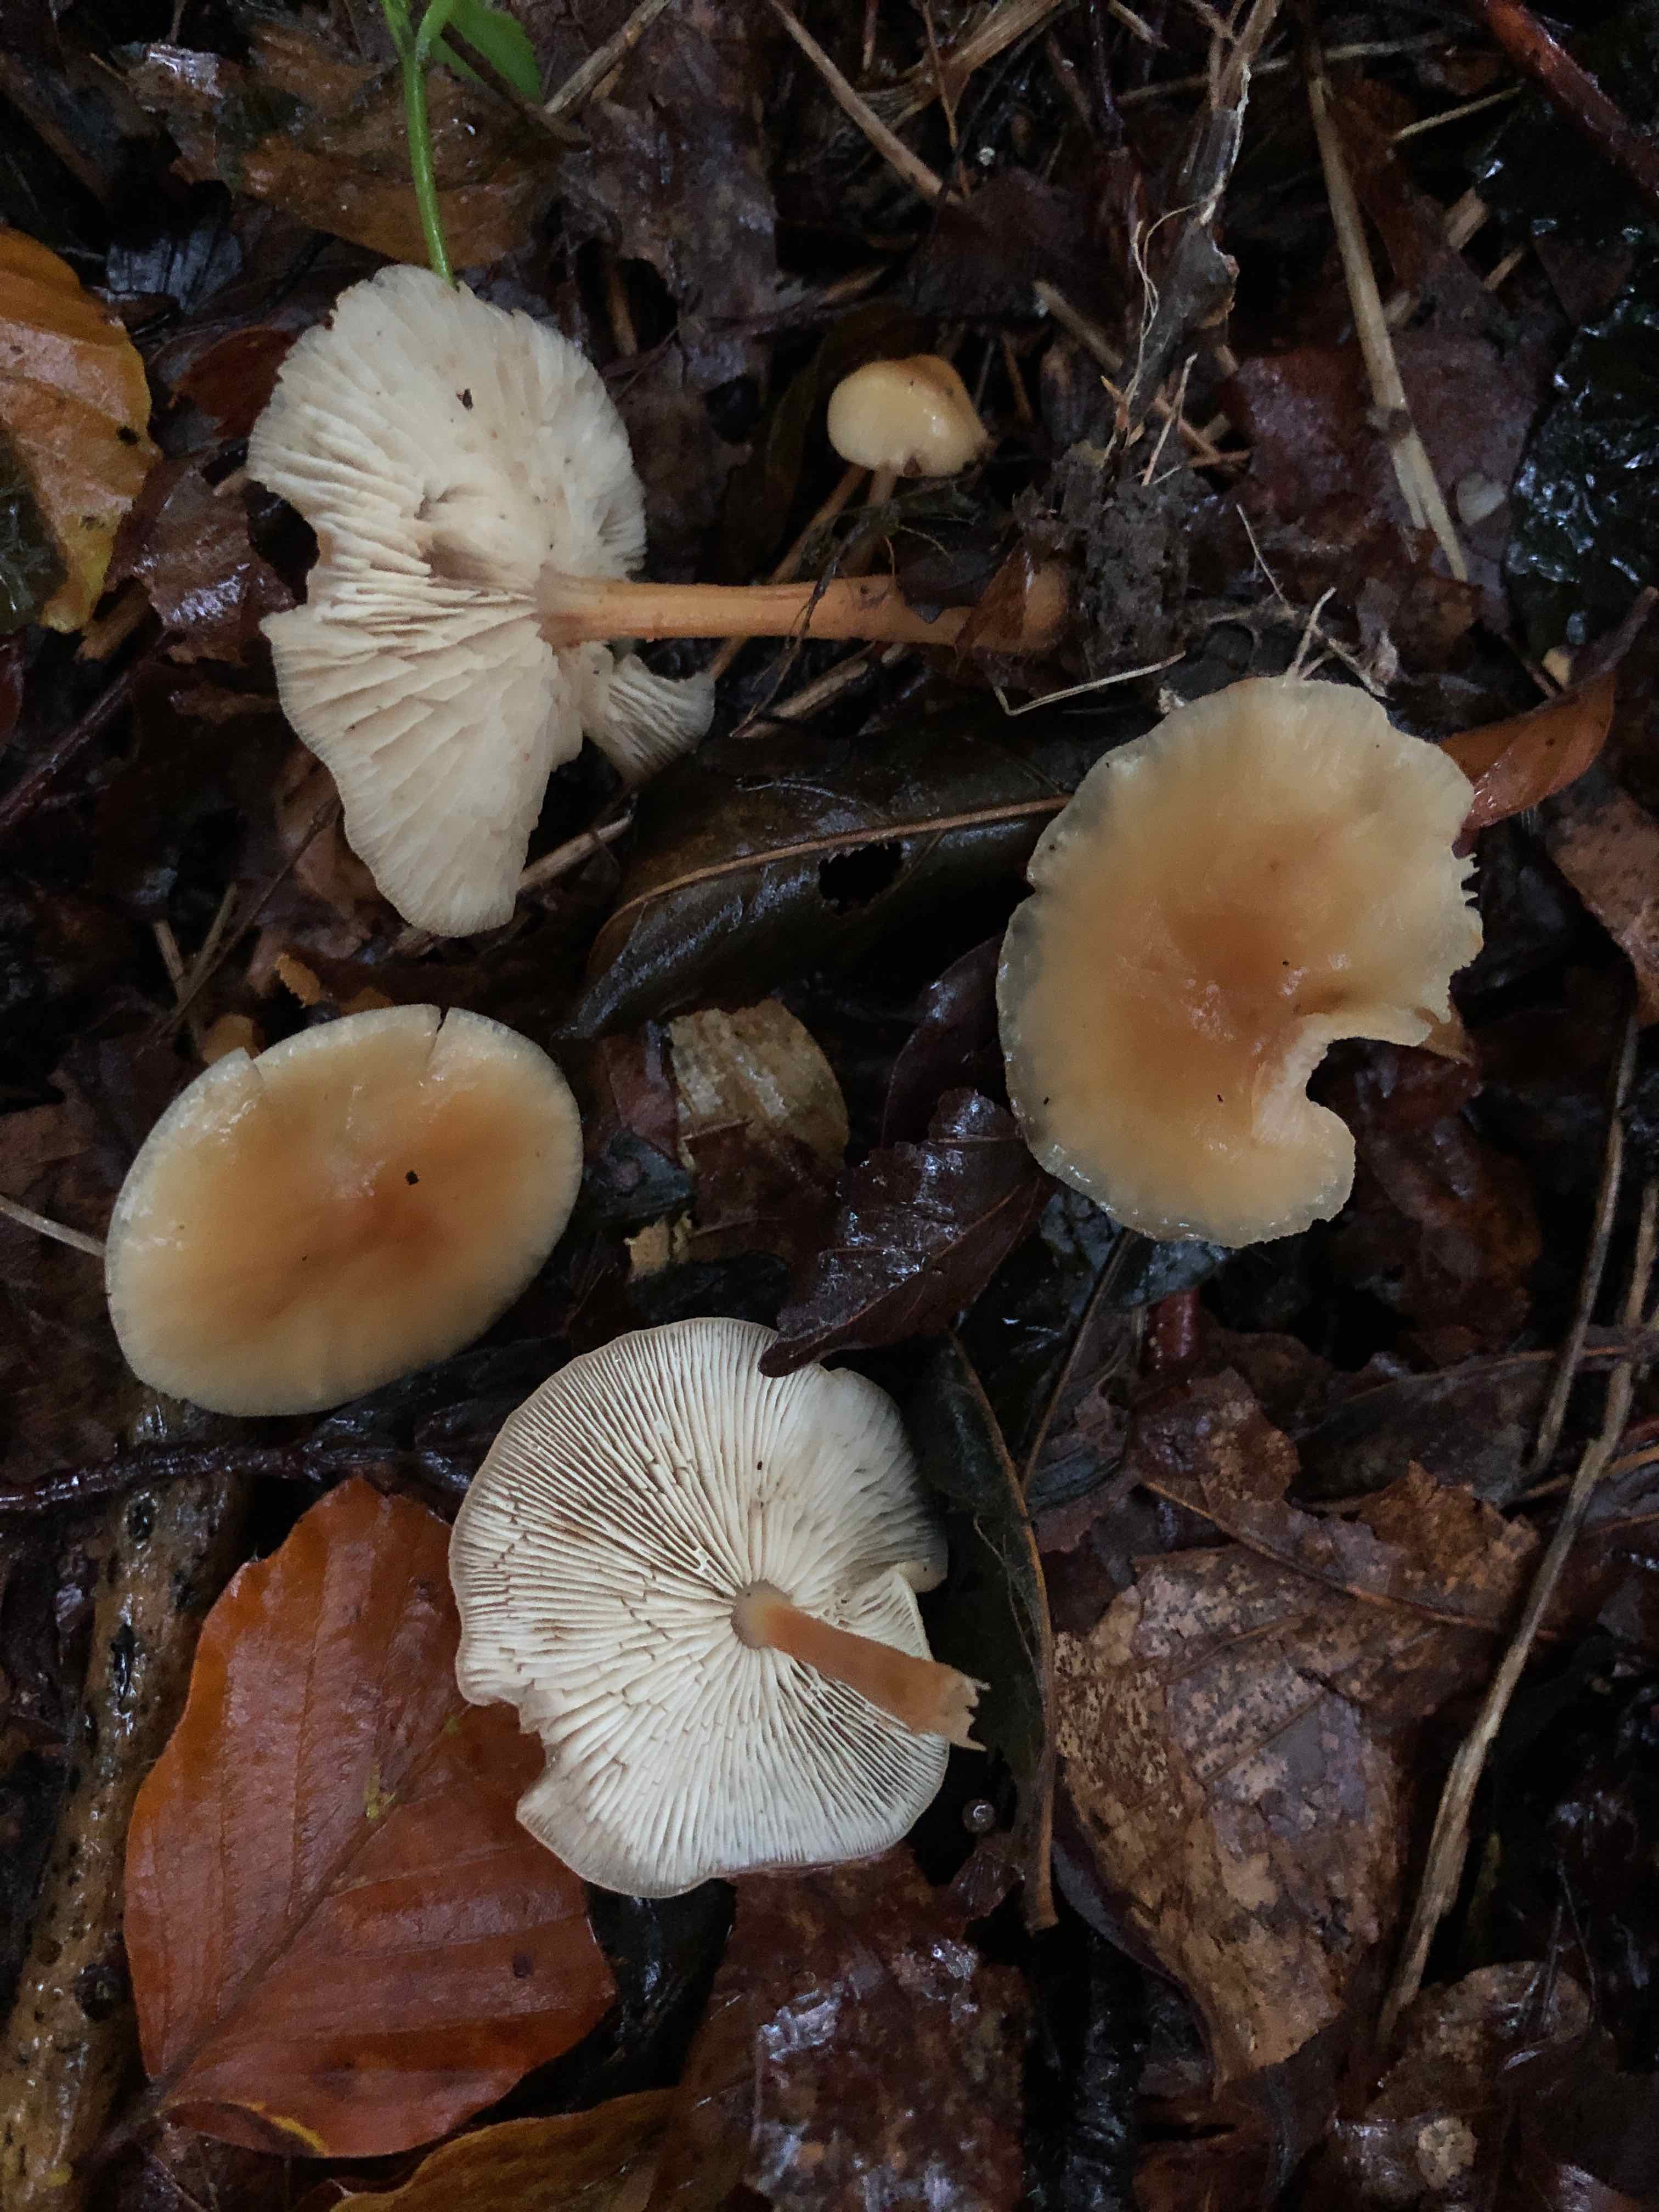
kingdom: Fungi
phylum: Basidiomycota
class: Agaricomycetes
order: Agaricales
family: Omphalotaceae
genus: Gymnopus
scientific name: Gymnopus dryophilus
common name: løv-fladhat
